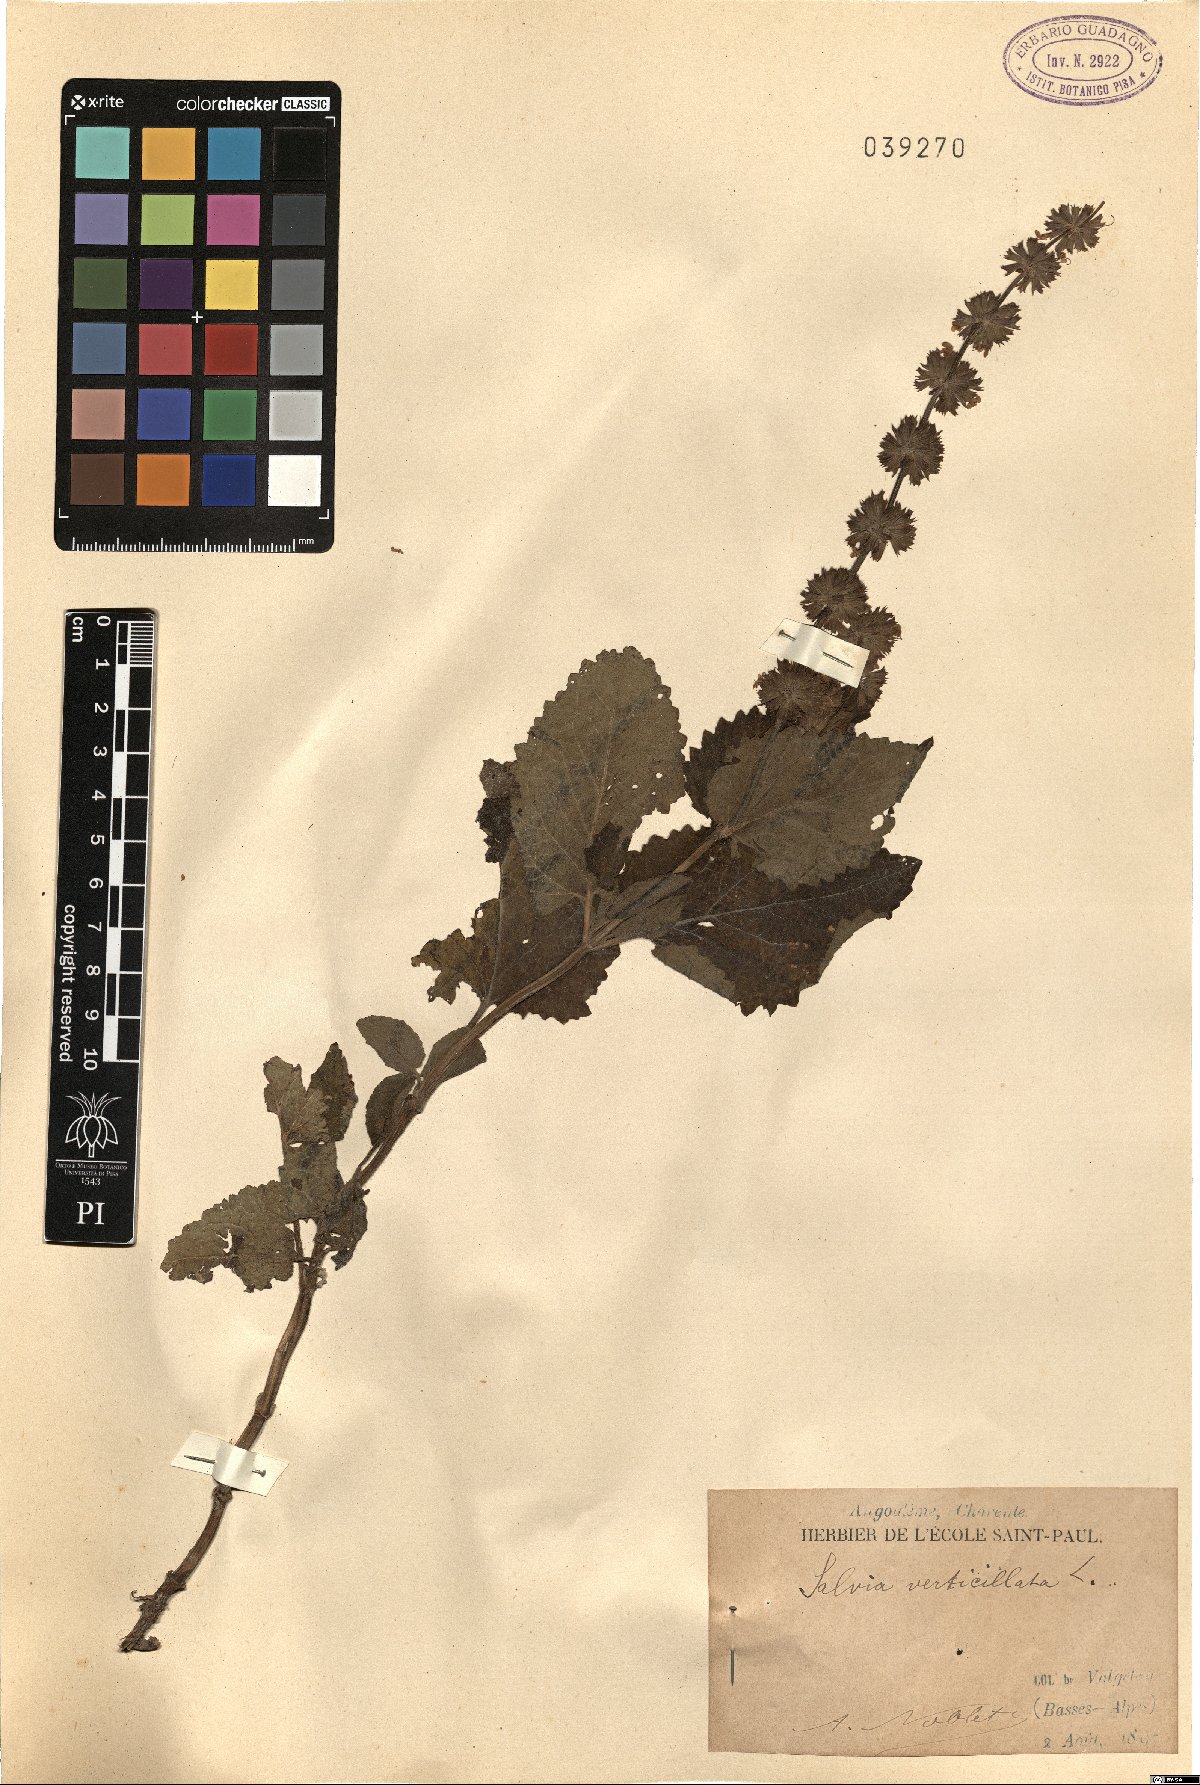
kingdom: Plantae
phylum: Tracheophyta
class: Magnoliopsida
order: Lamiales
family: Lamiaceae
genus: Salvia
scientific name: Salvia verticillata
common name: Whorled clary
